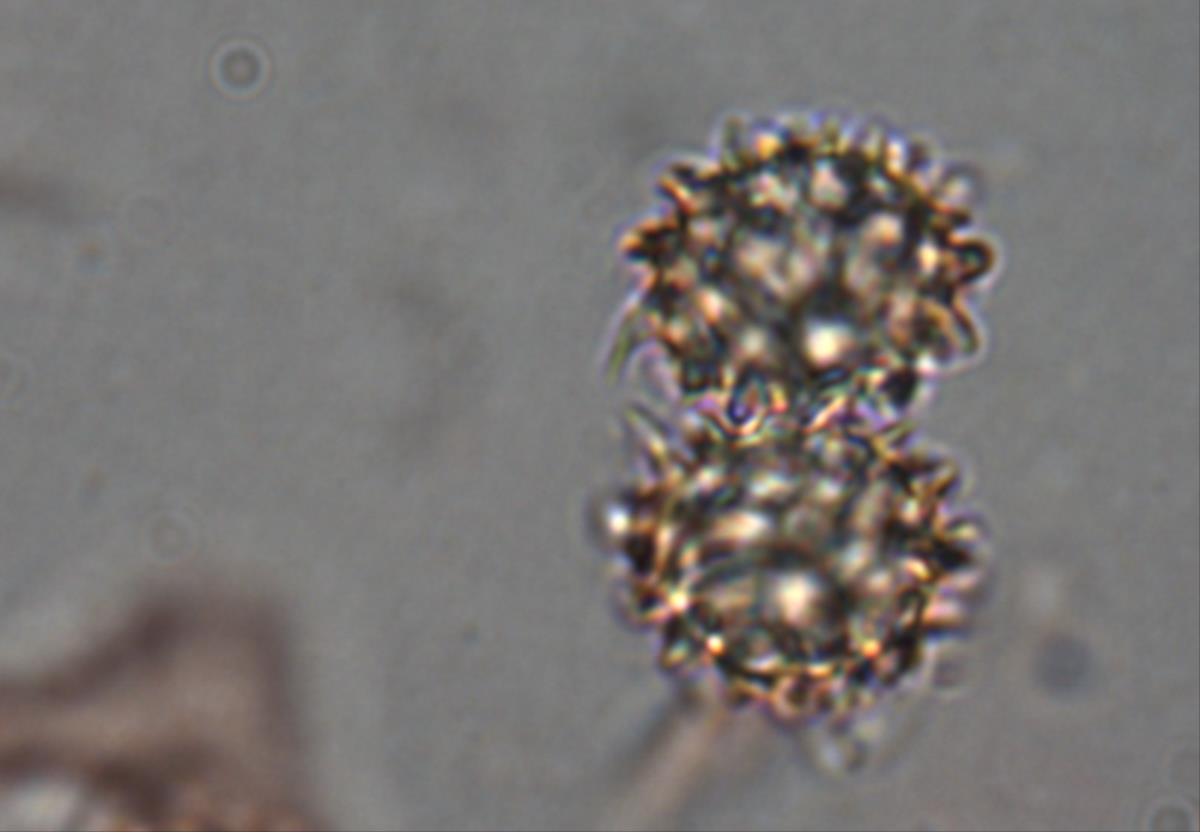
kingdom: Fungi
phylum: Basidiomycota
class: Agaricomycetes
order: Agaricales
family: Stephanosporaceae
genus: Stephanospora
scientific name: Stephanospora poropingao
